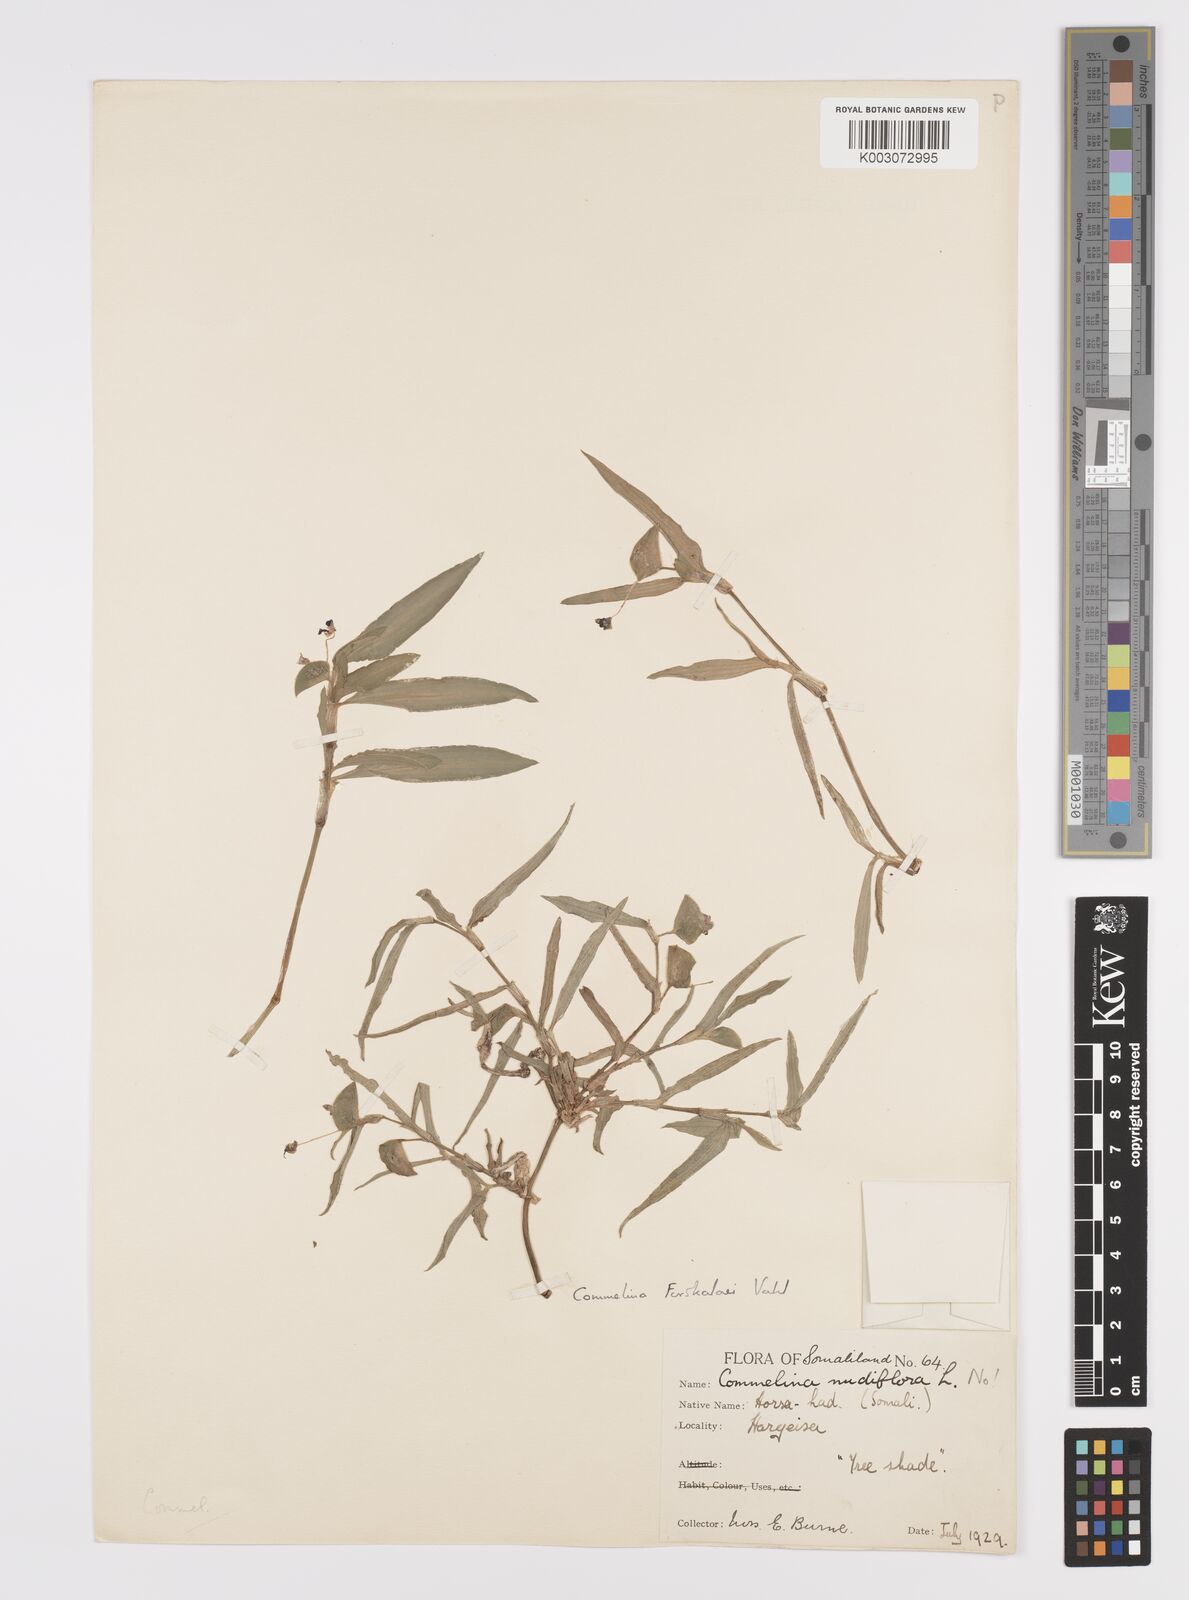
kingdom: Plantae
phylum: Tracheophyta
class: Liliopsida
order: Commelinales
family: Commelinaceae
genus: Commelina
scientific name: Commelina forskaolii
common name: Rat's ear
